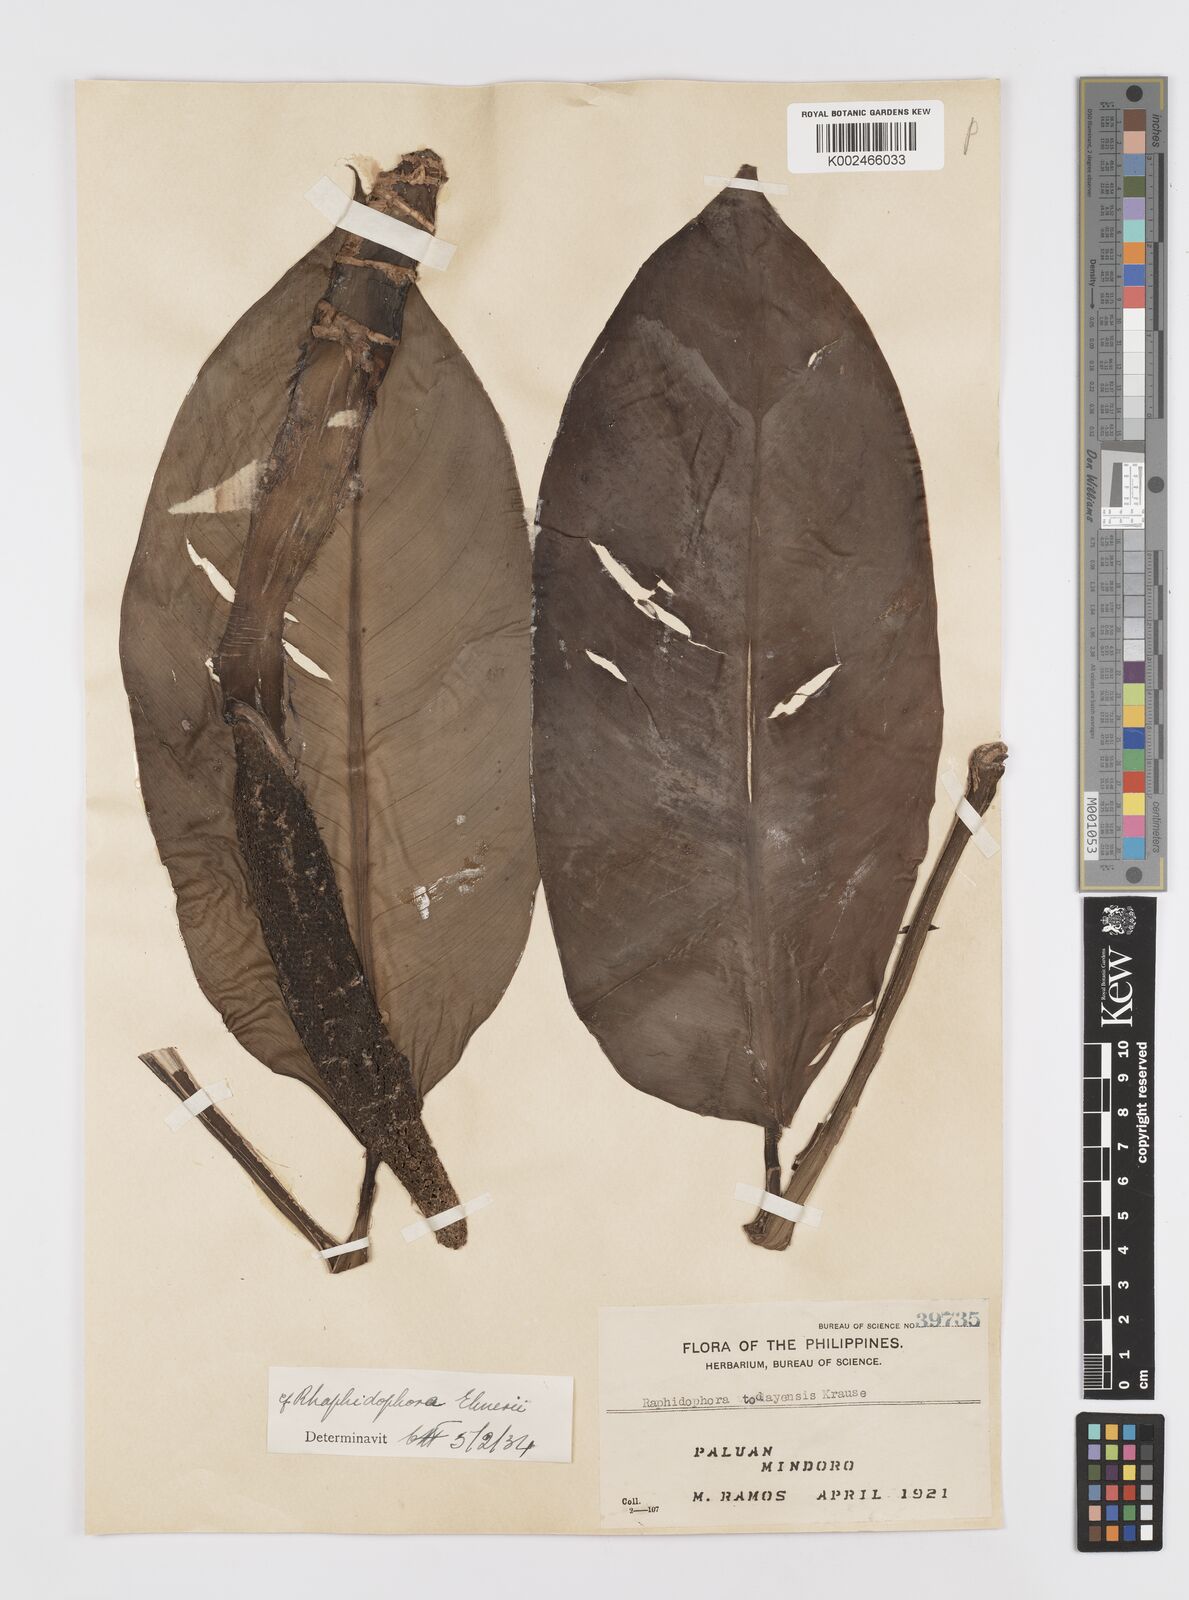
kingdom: Plantae
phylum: Tracheophyta
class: Liliopsida
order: Alismatales
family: Araceae
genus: Rhaphidophora
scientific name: Rhaphidophora elmeri
